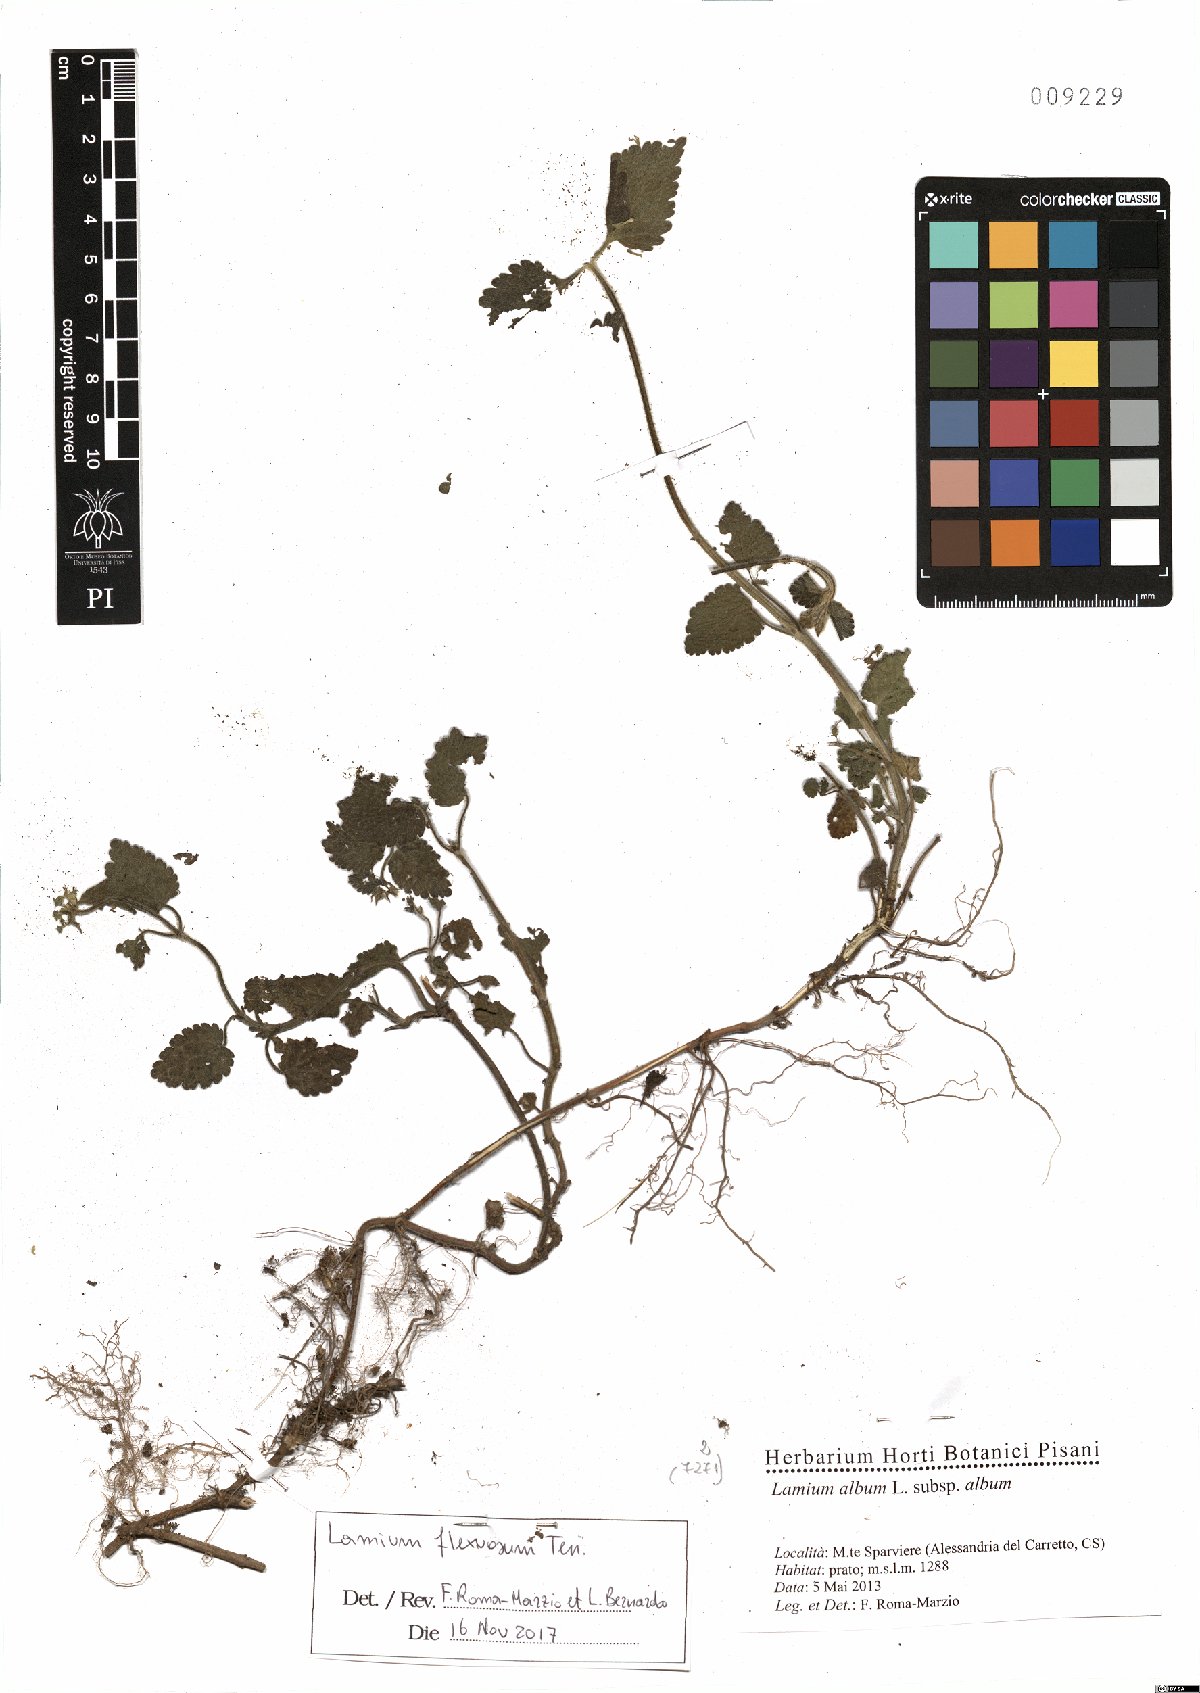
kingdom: Plantae
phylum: Tracheophyta
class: Magnoliopsida
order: Lamiales
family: Lamiaceae
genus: Lamium
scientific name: Lamium flexuosum
